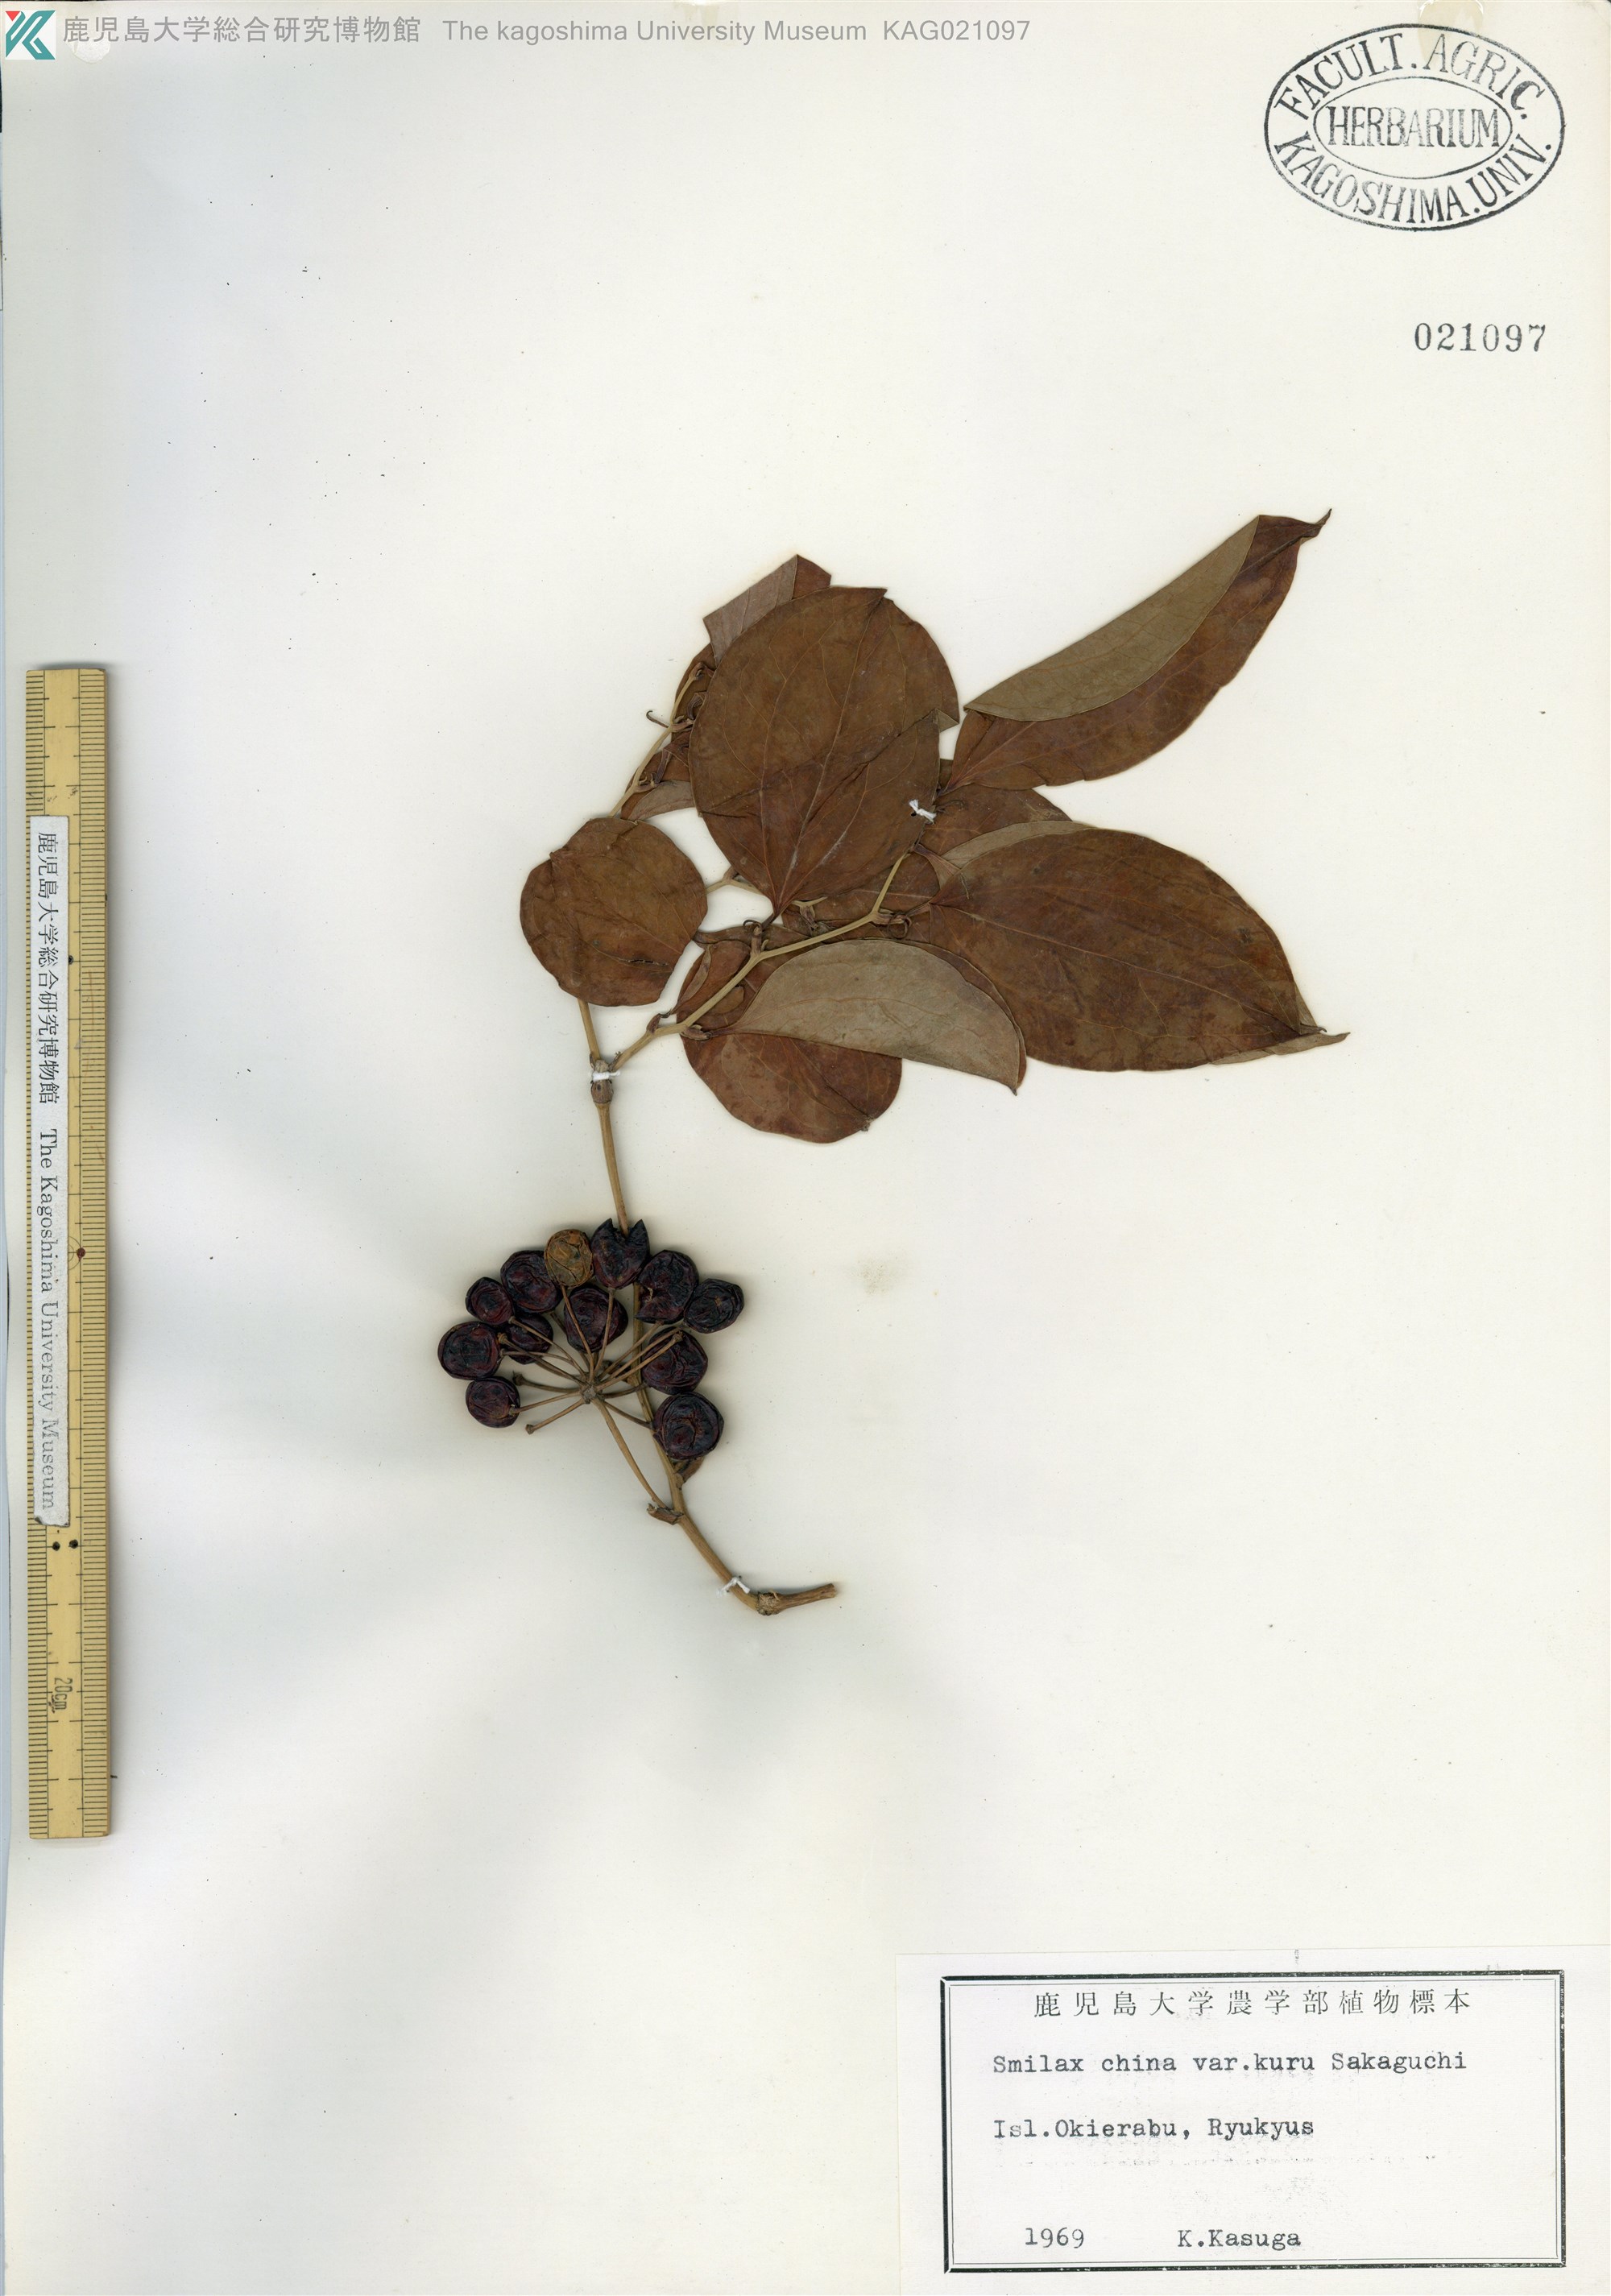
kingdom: Plantae
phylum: Tracheophyta
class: Liliopsida
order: Liliales
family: Smilacaceae
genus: Smilax
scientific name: Smilax china
